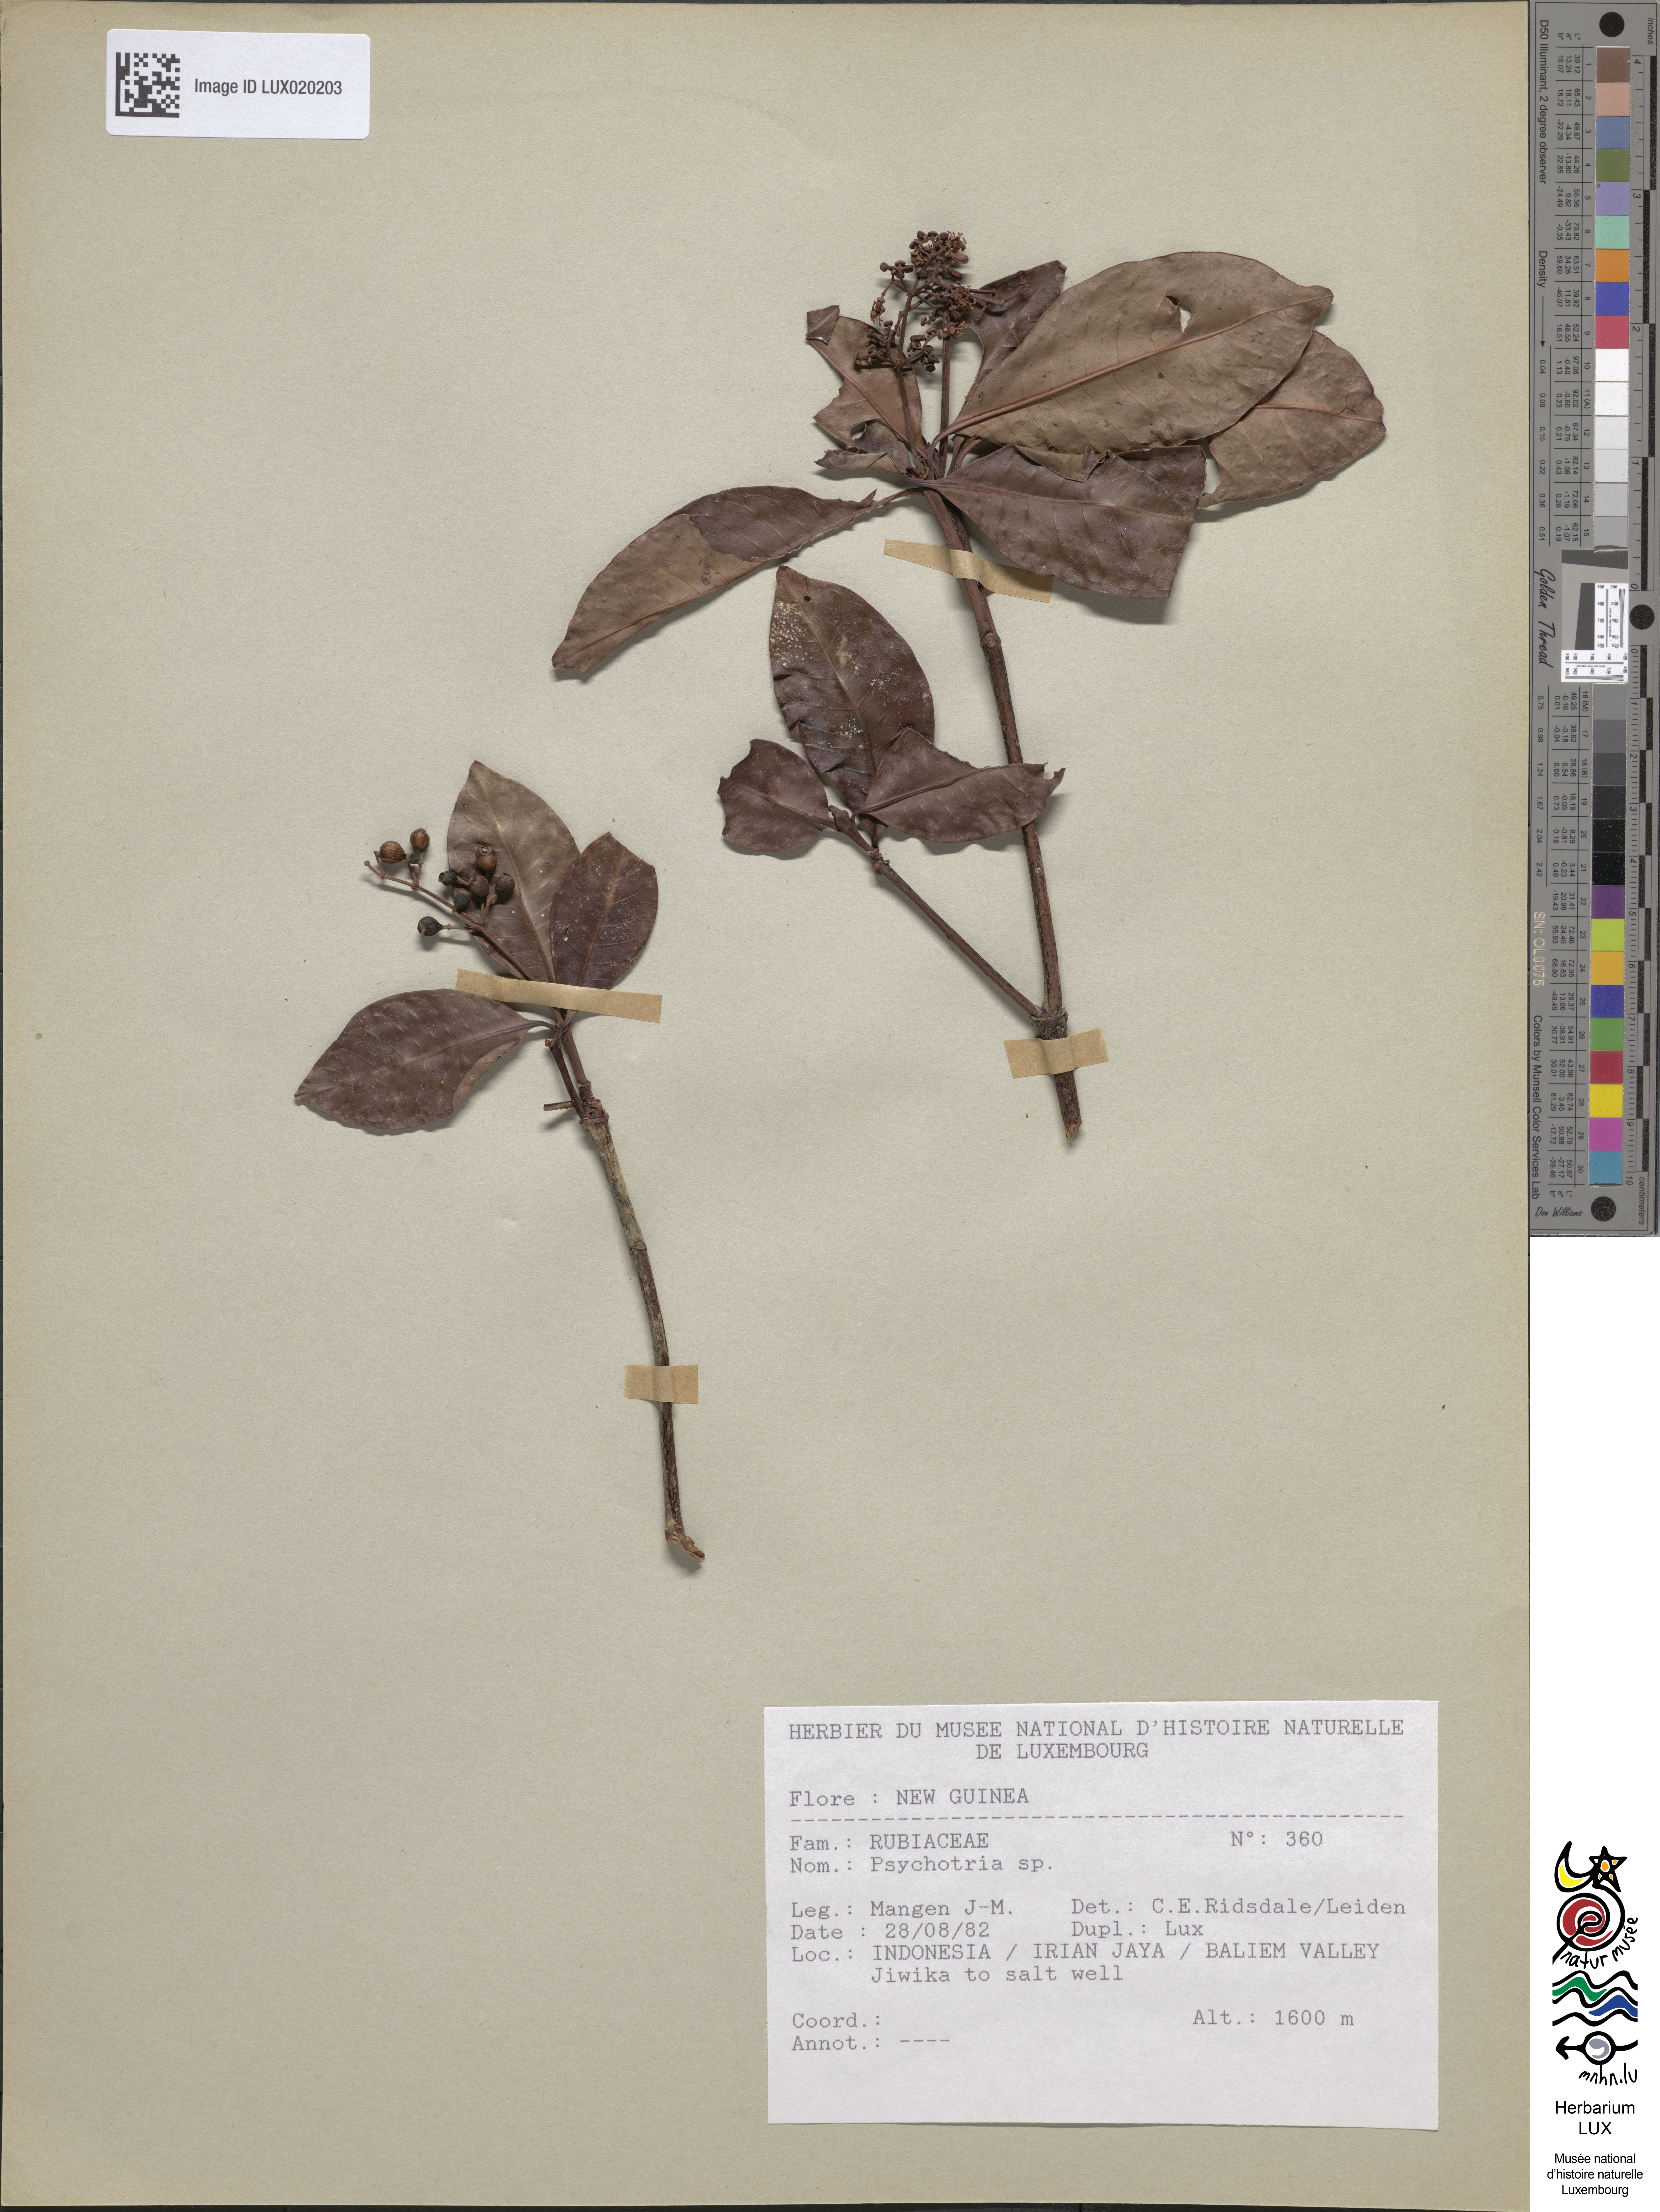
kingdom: Plantae
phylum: Tracheophyta
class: Magnoliopsida
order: Gentianales
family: Rubiaceae
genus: Psychotria
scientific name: Psychotria
